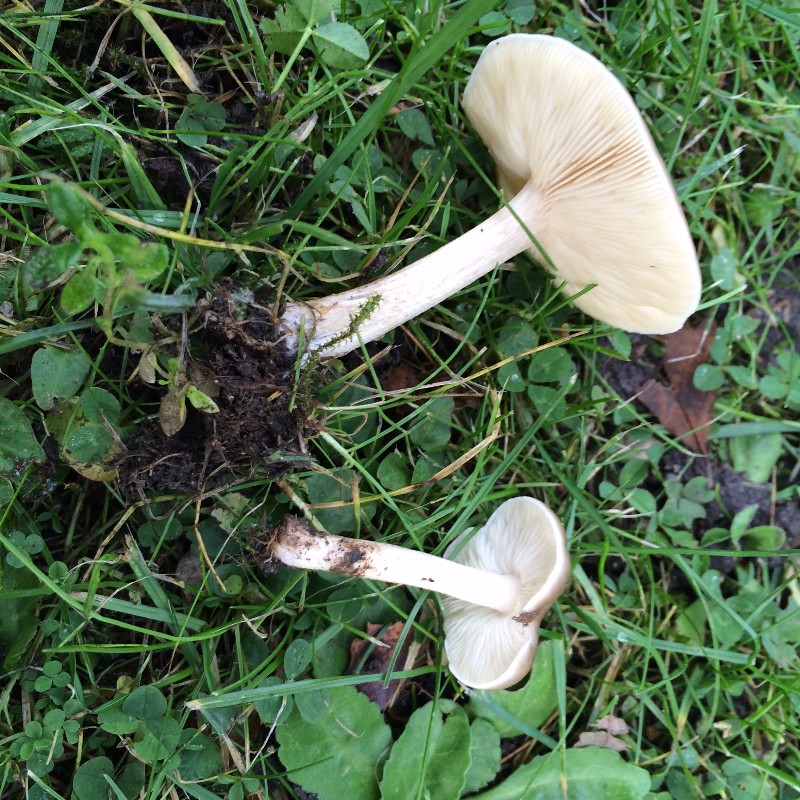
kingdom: Fungi
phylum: Basidiomycota
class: Agaricomycetes
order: Agaricales
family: Tricholomataceae
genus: Melanoleuca
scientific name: Melanoleuca polioleuca
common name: almindelig munkehat
